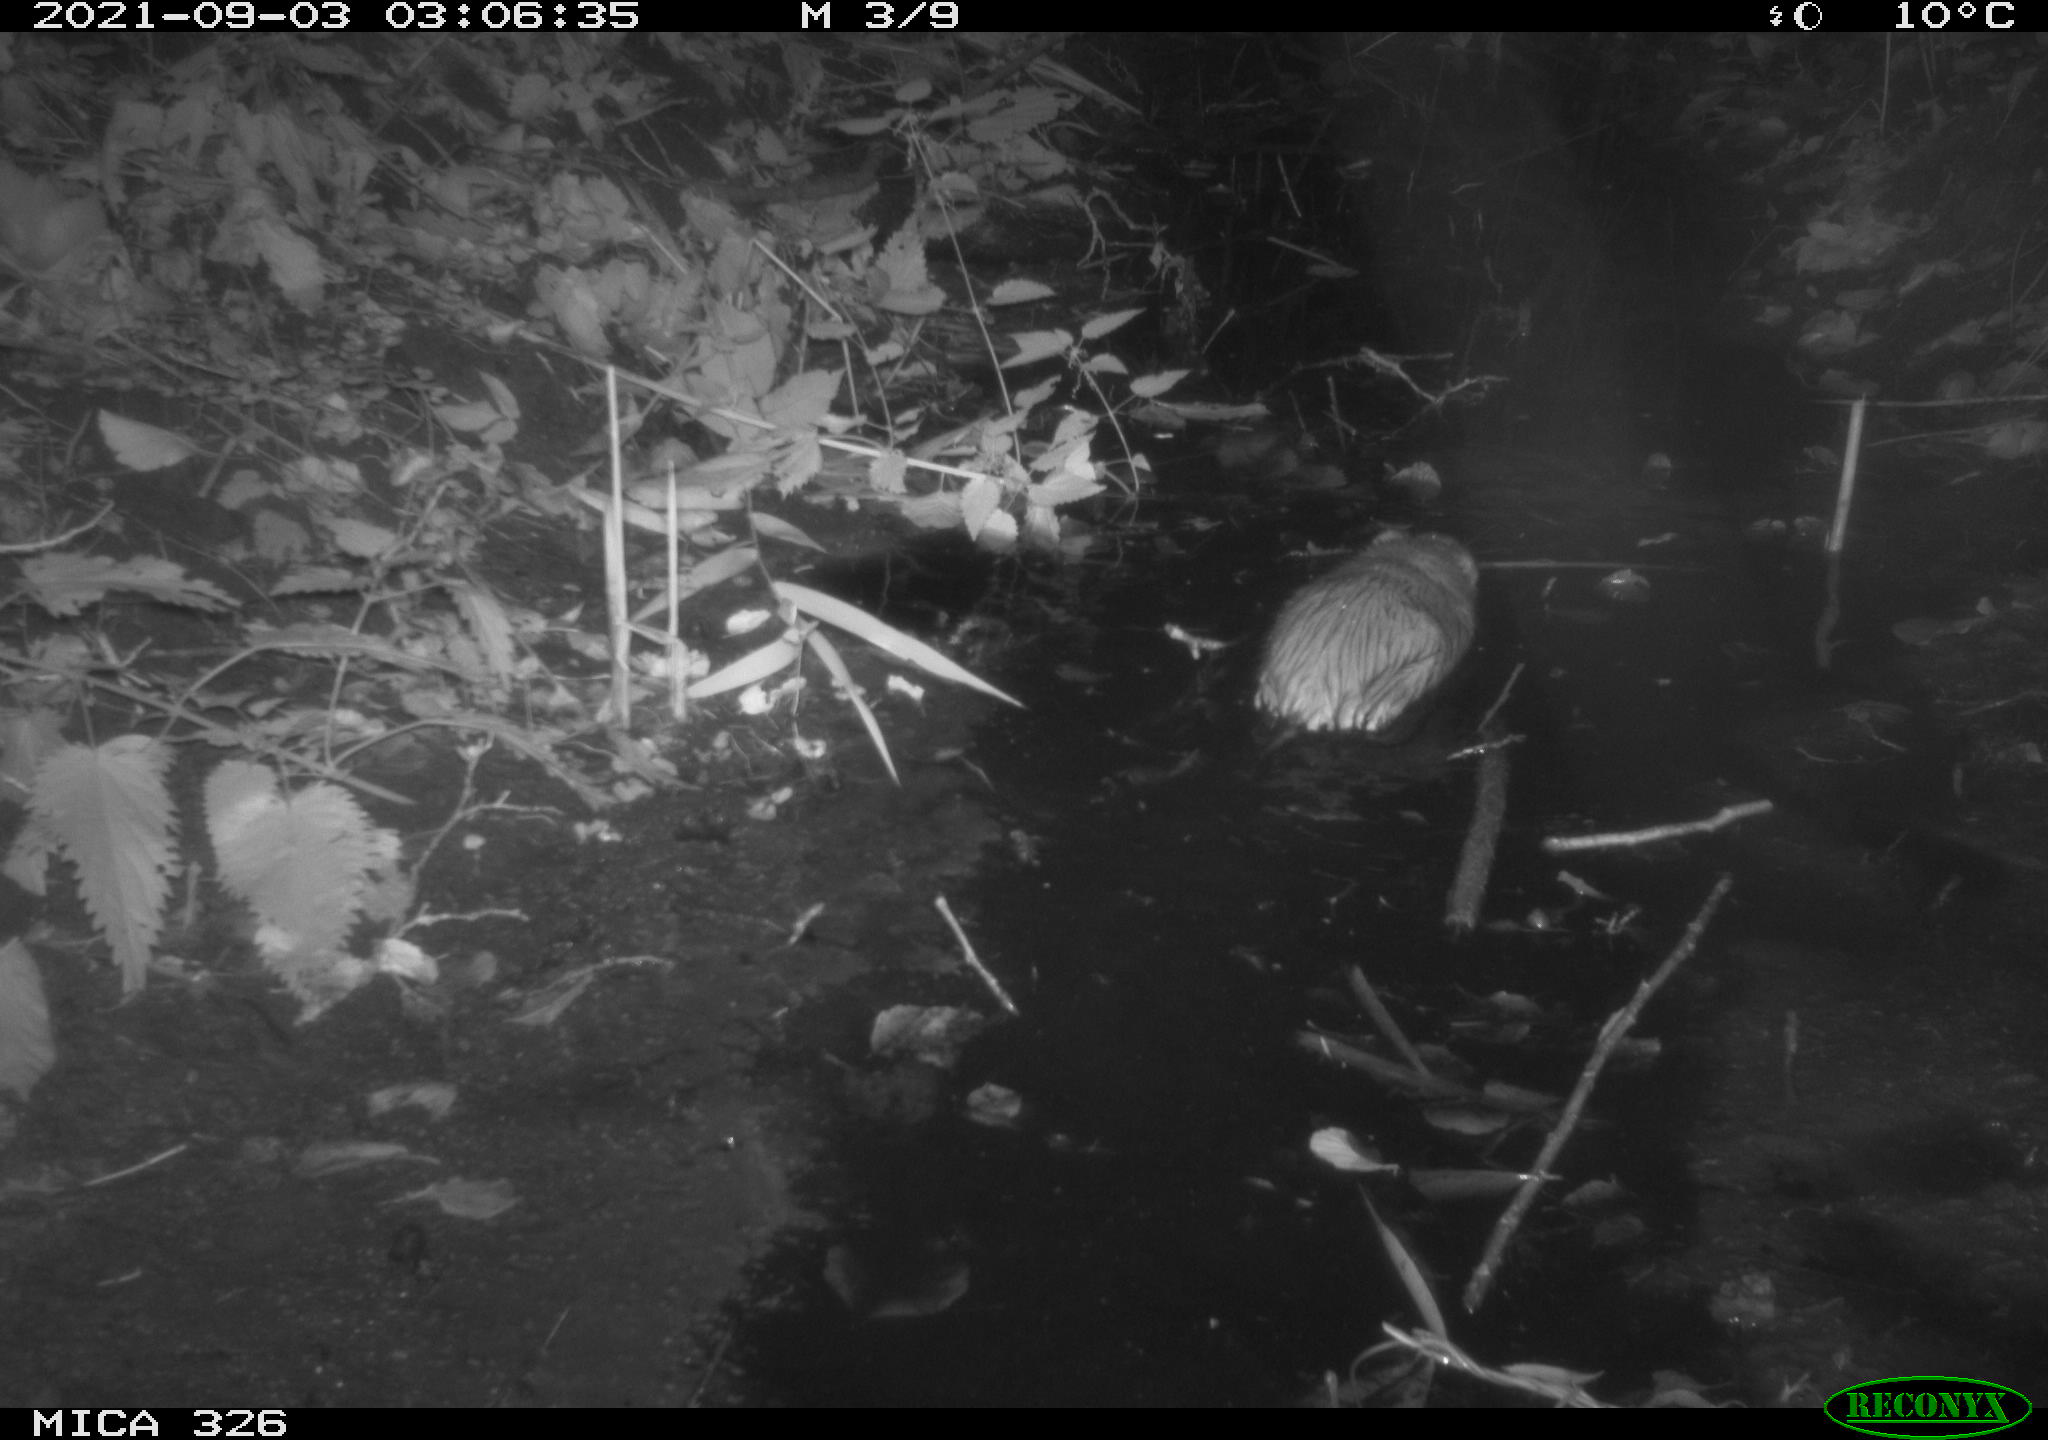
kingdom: Animalia
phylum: Chordata
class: Mammalia
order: Rodentia
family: Cricetidae
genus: Ondatra
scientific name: Ondatra zibethicus
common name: Muskrat
